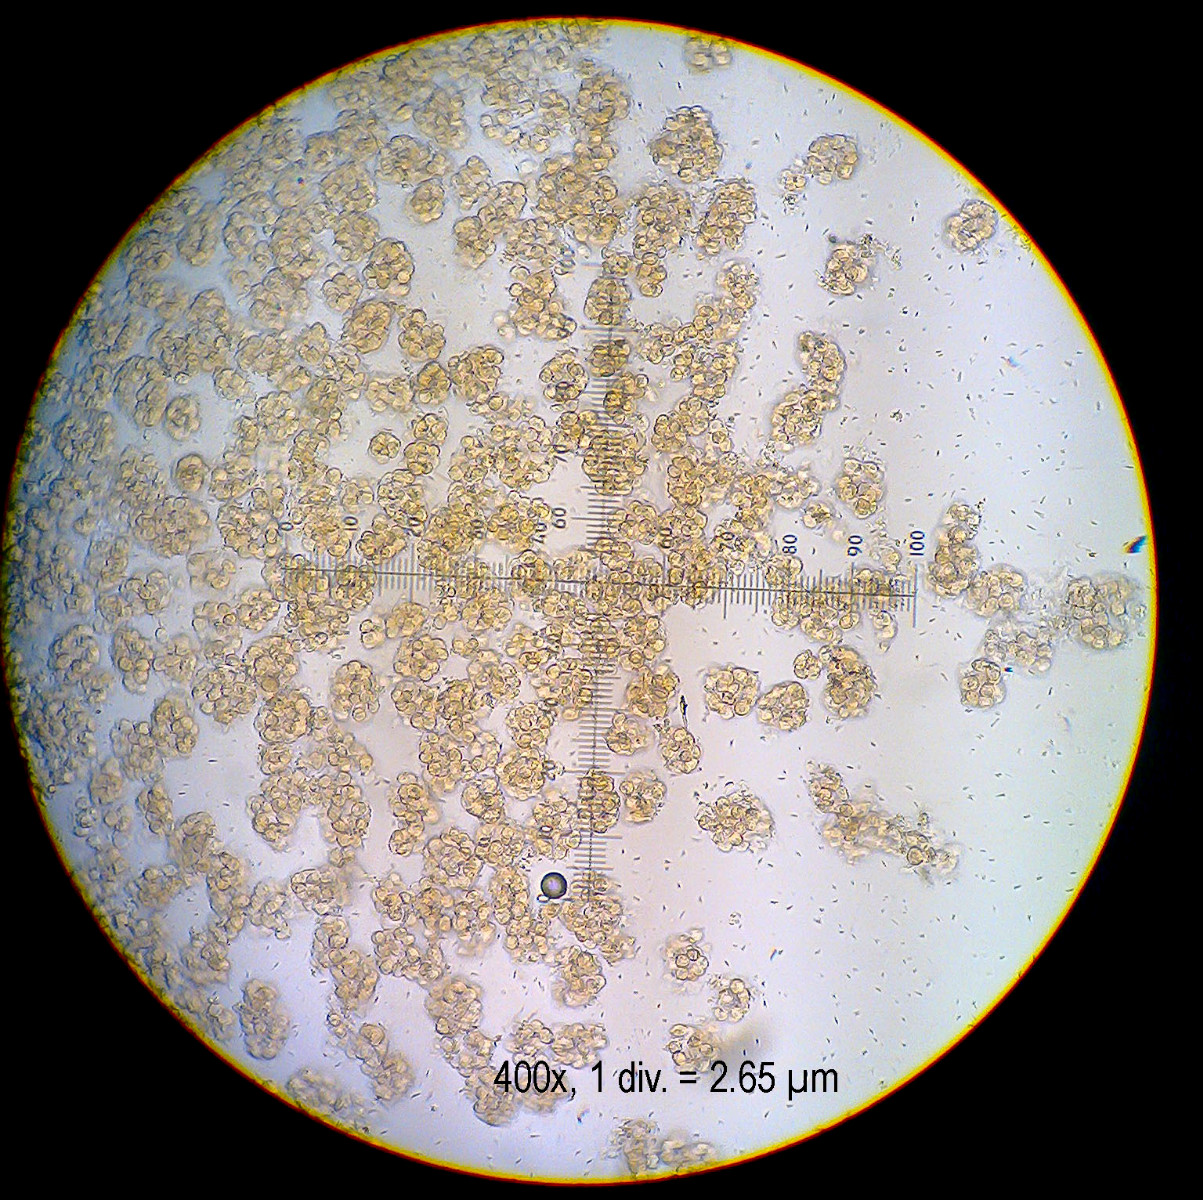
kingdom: Fungi
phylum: Ascomycota
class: Sordariomycetes
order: Hypocreales
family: Bionectriaceae
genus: Pronectria
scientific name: Pronectria robergei
